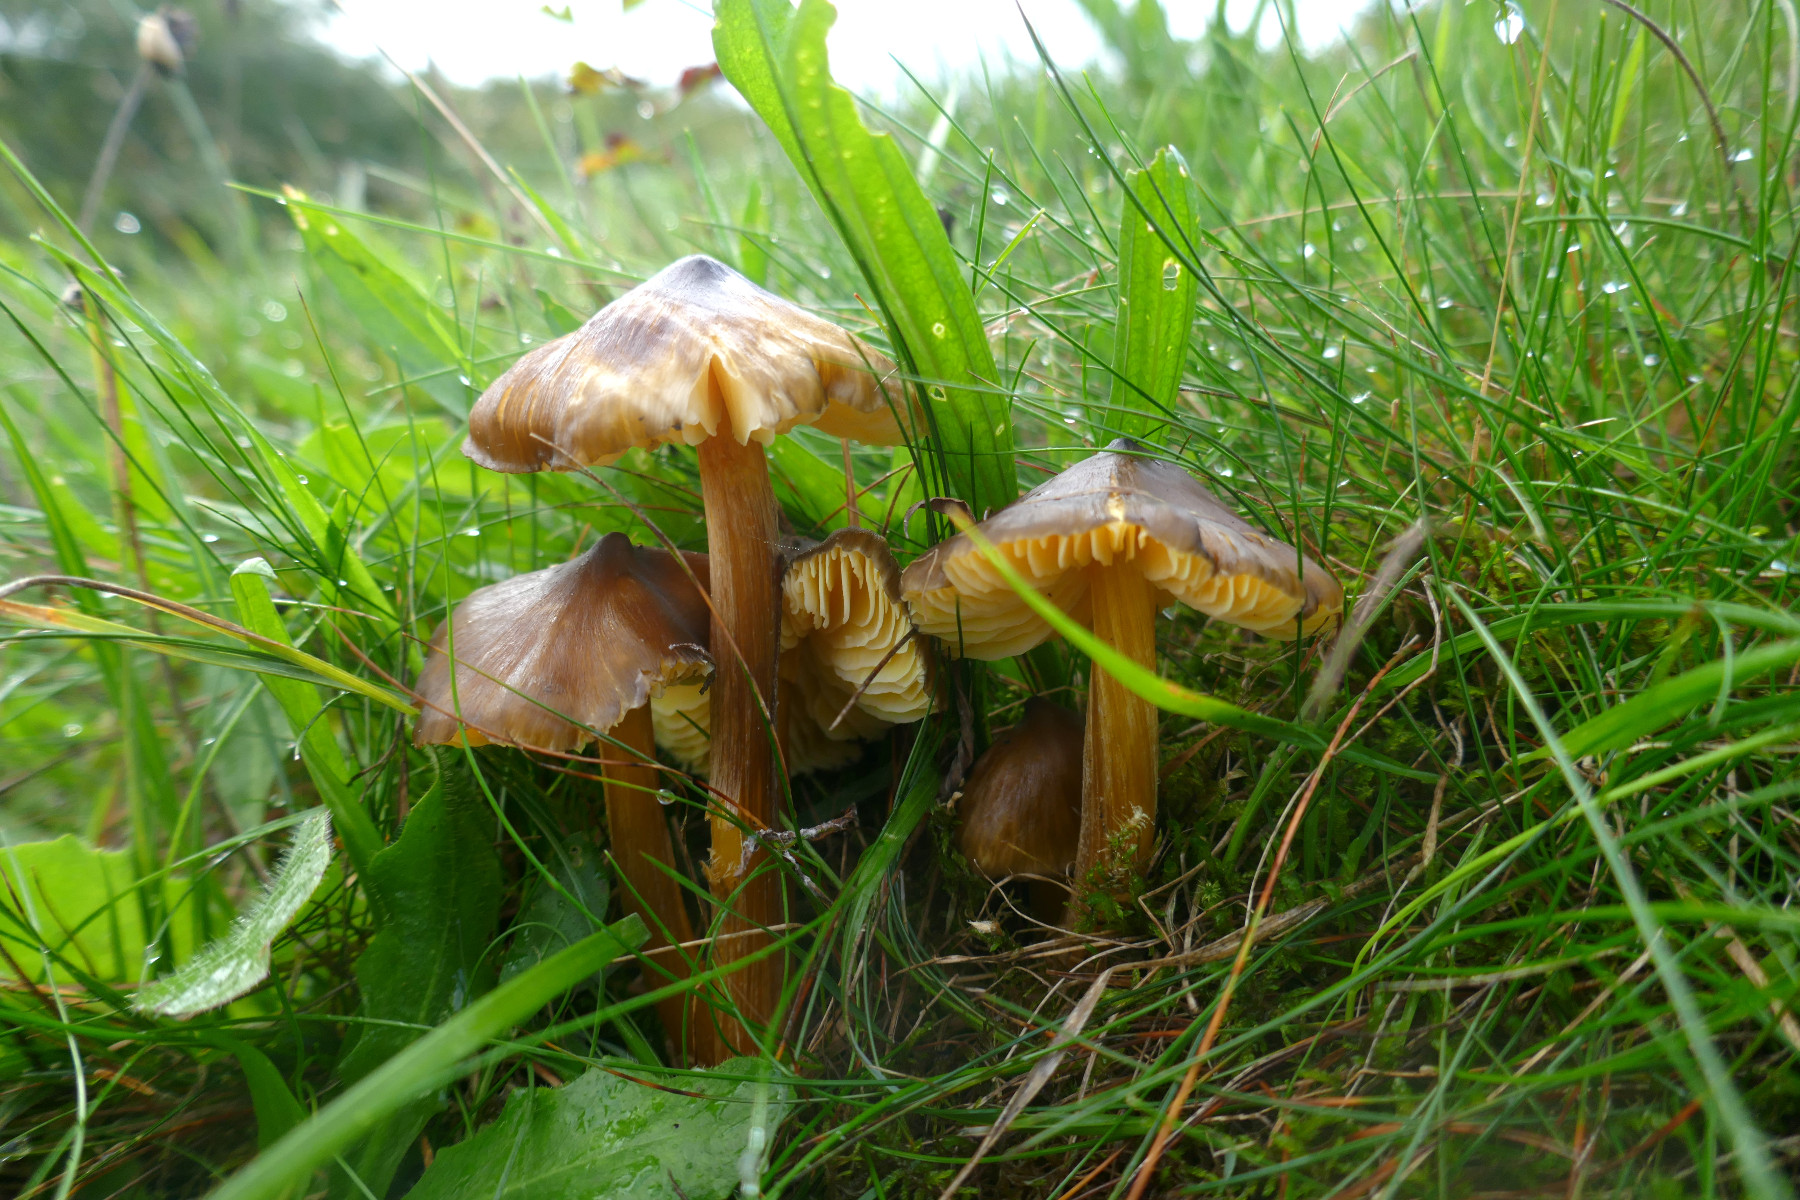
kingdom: Fungi
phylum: Basidiomycota
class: Agaricomycetes
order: Agaricales
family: Hygrophoraceae
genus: Hygrocybe
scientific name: Hygrocybe spadicea
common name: daddelbrun vokshat
